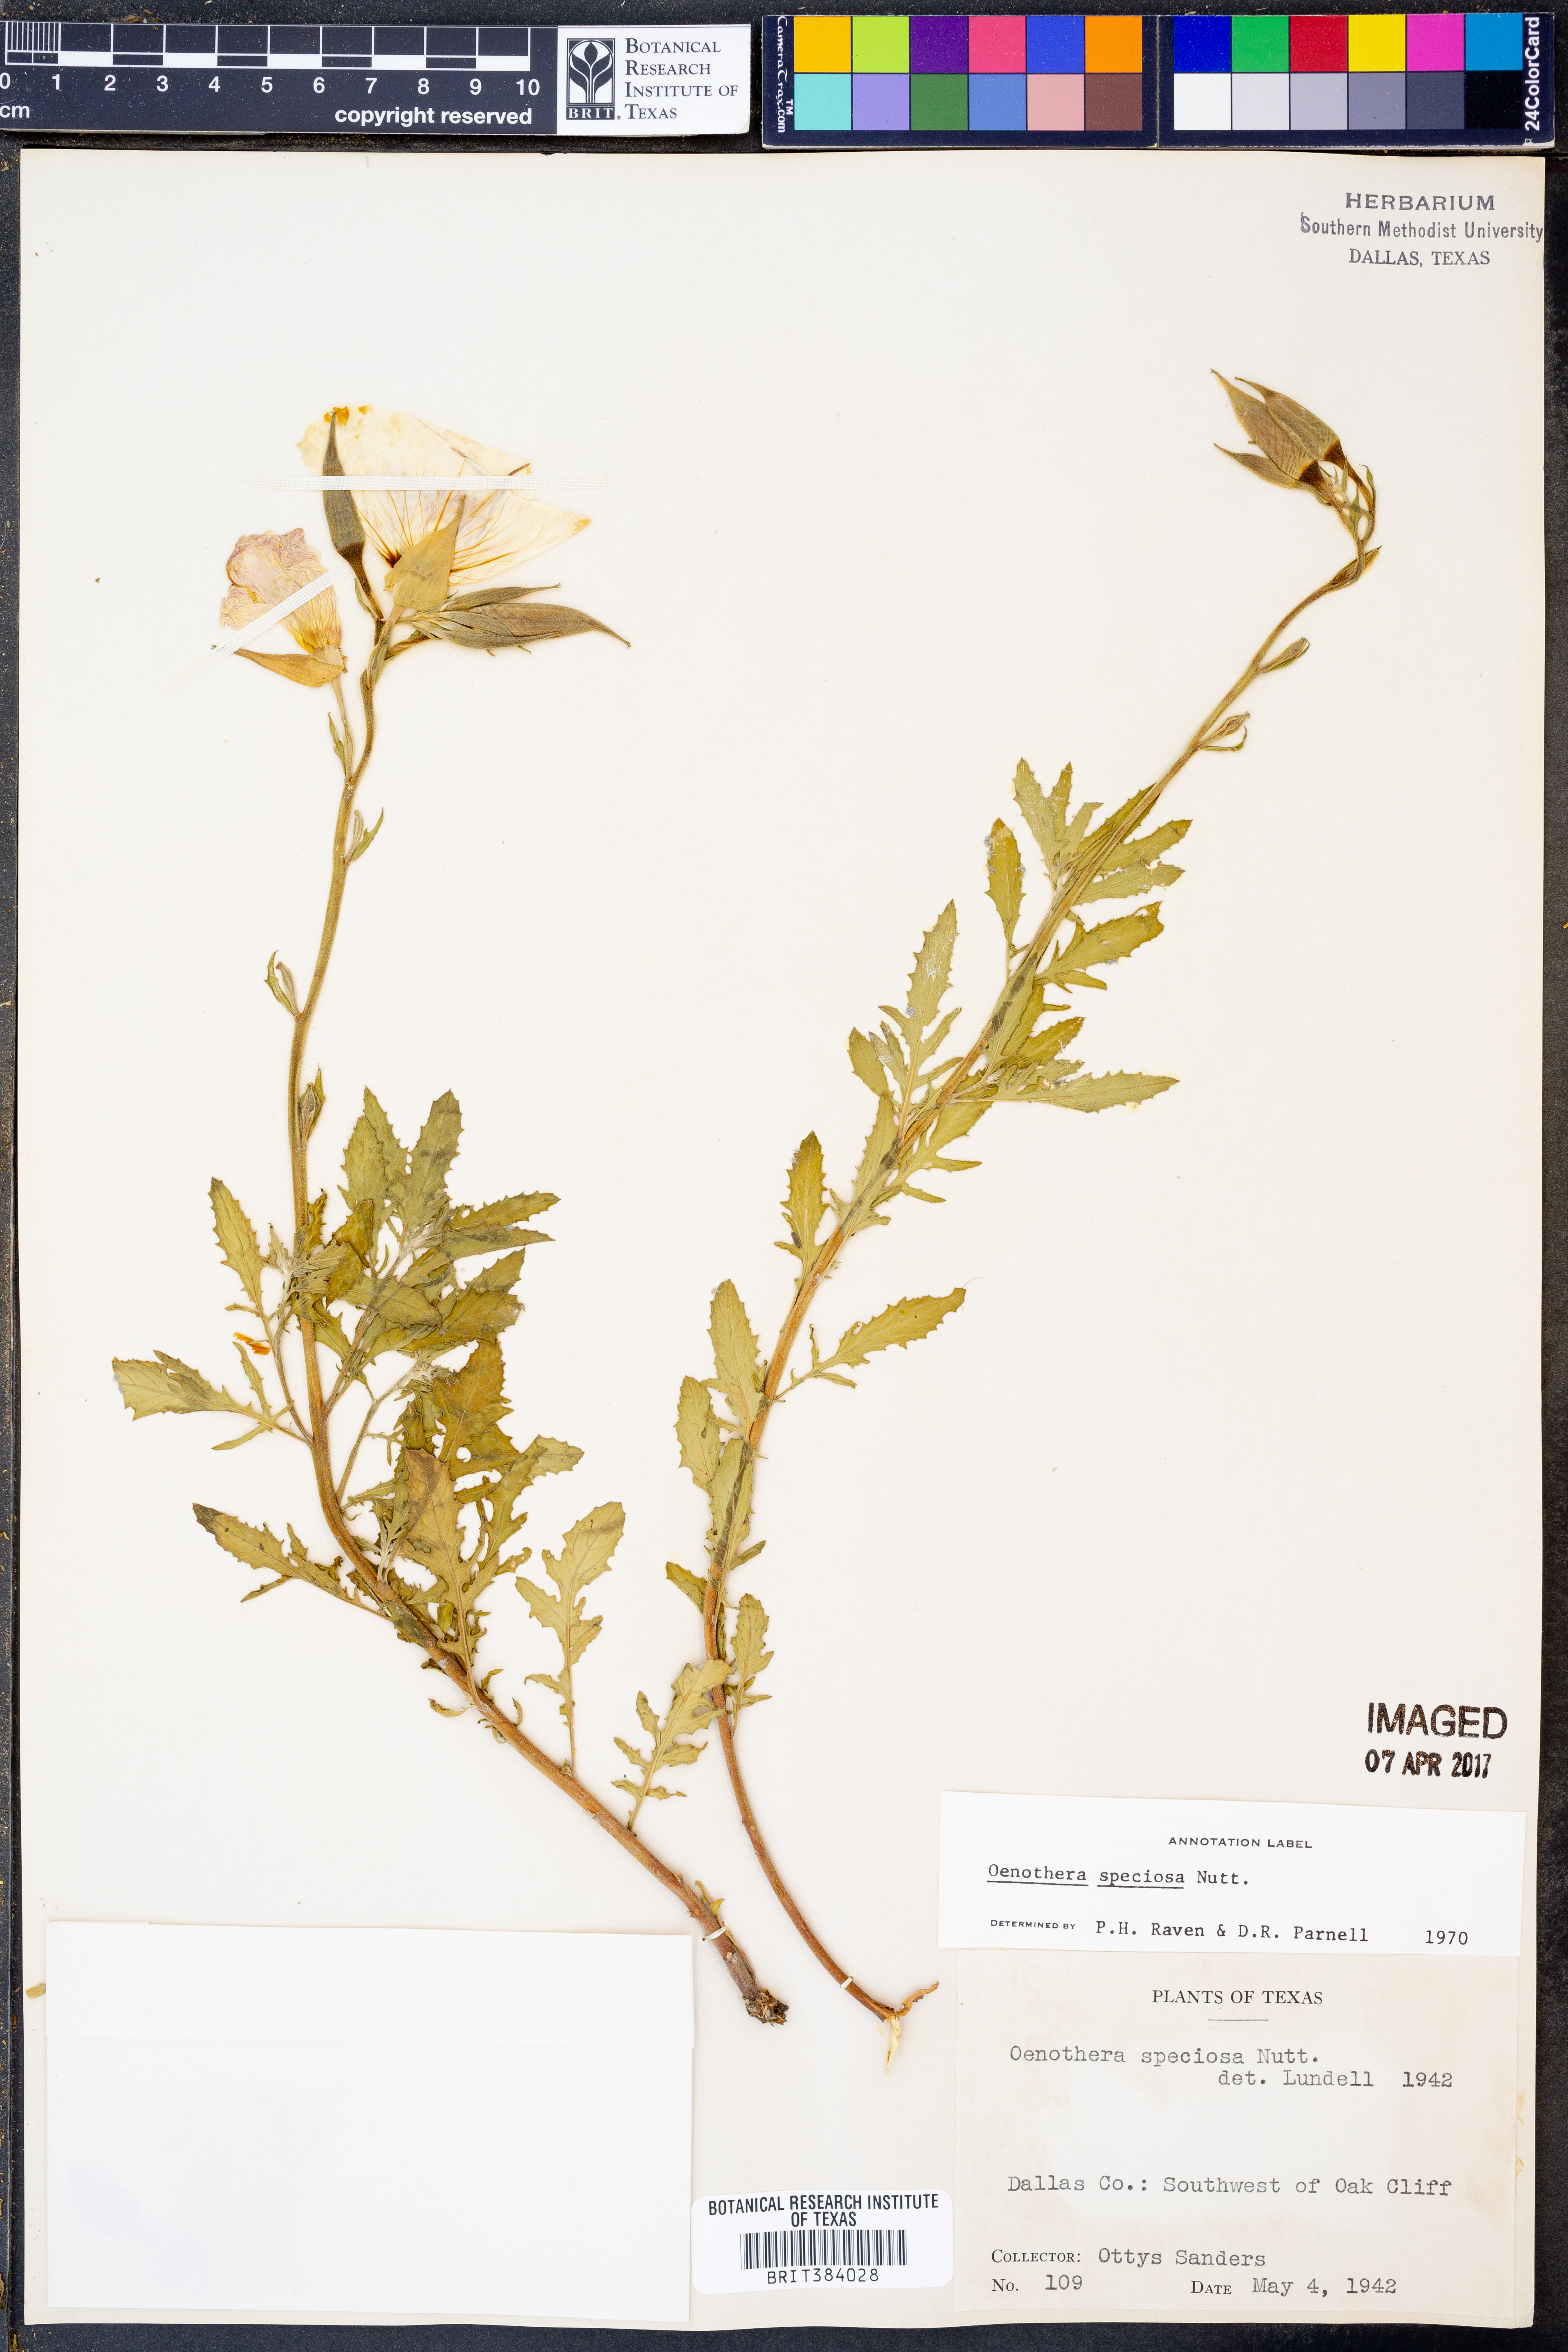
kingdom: Plantae
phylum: Tracheophyta
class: Magnoliopsida
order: Myrtales
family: Onagraceae
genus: Oenothera
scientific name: Oenothera speciosa
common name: White evening-primrose
